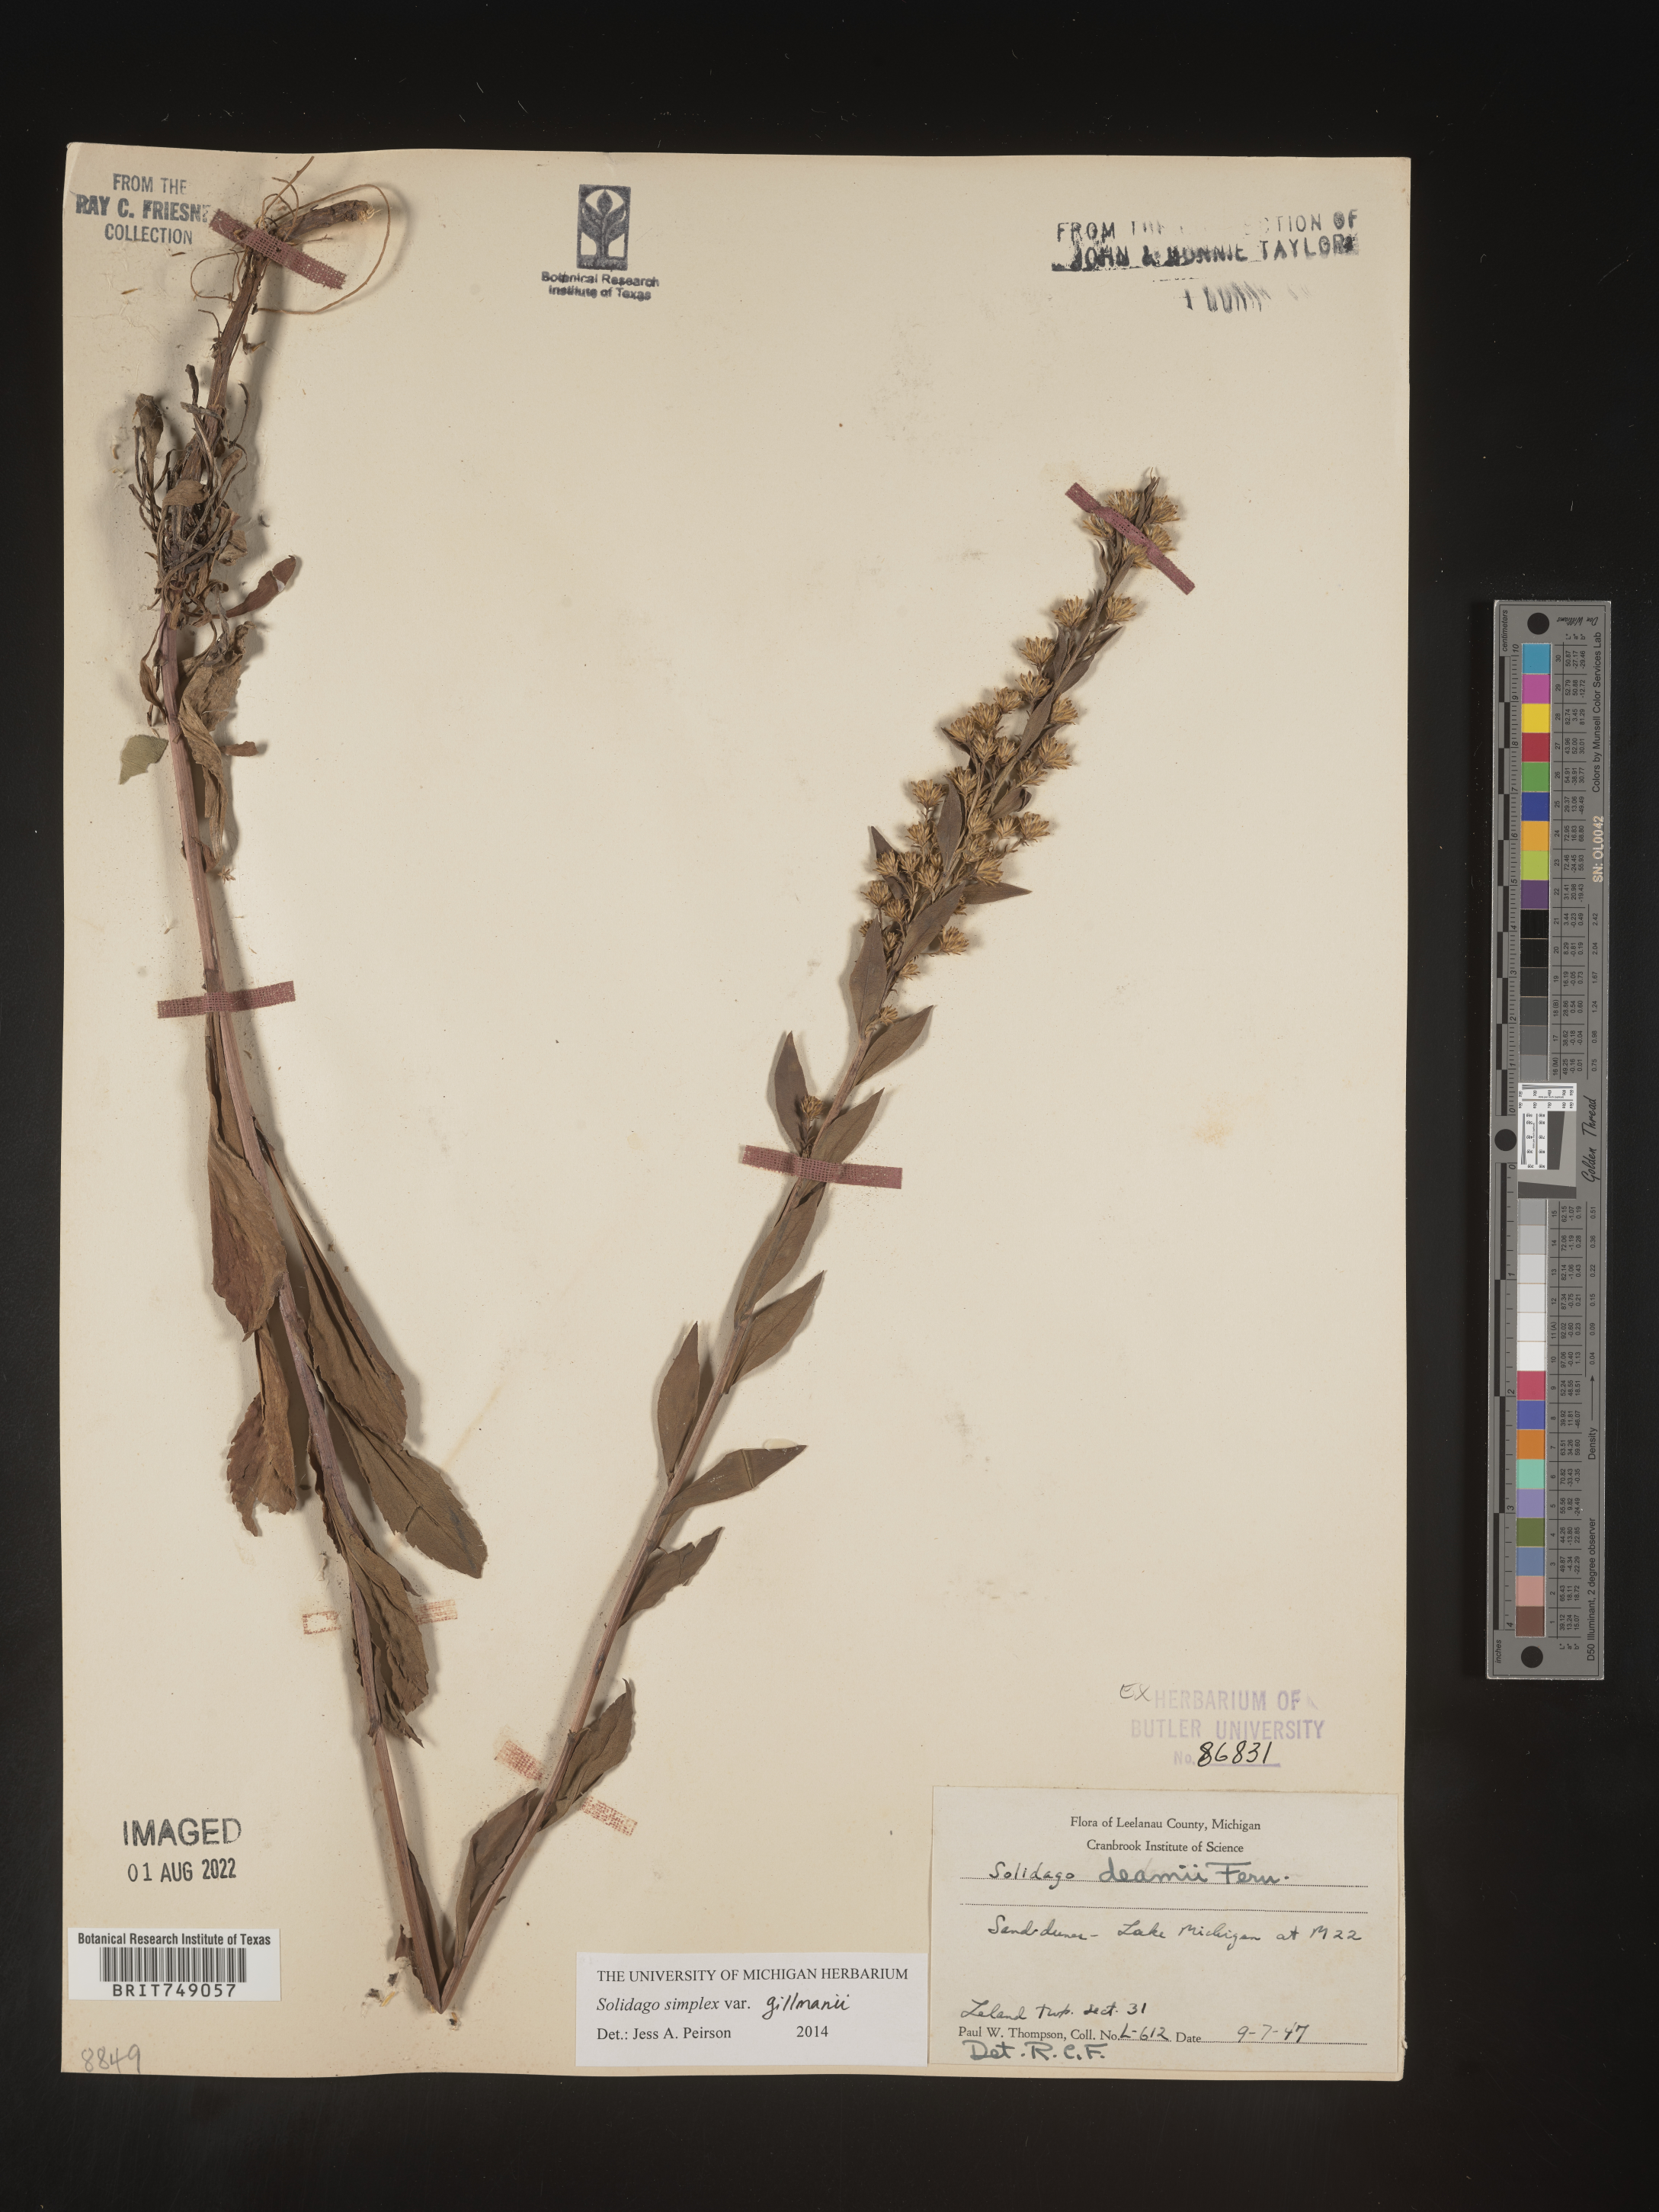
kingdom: Plantae
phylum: Tracheophyta
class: Magnoliopsida
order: Asterales
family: Asteraceae
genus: Solidago
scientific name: Solidago simplex
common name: Sticky goldenrod
